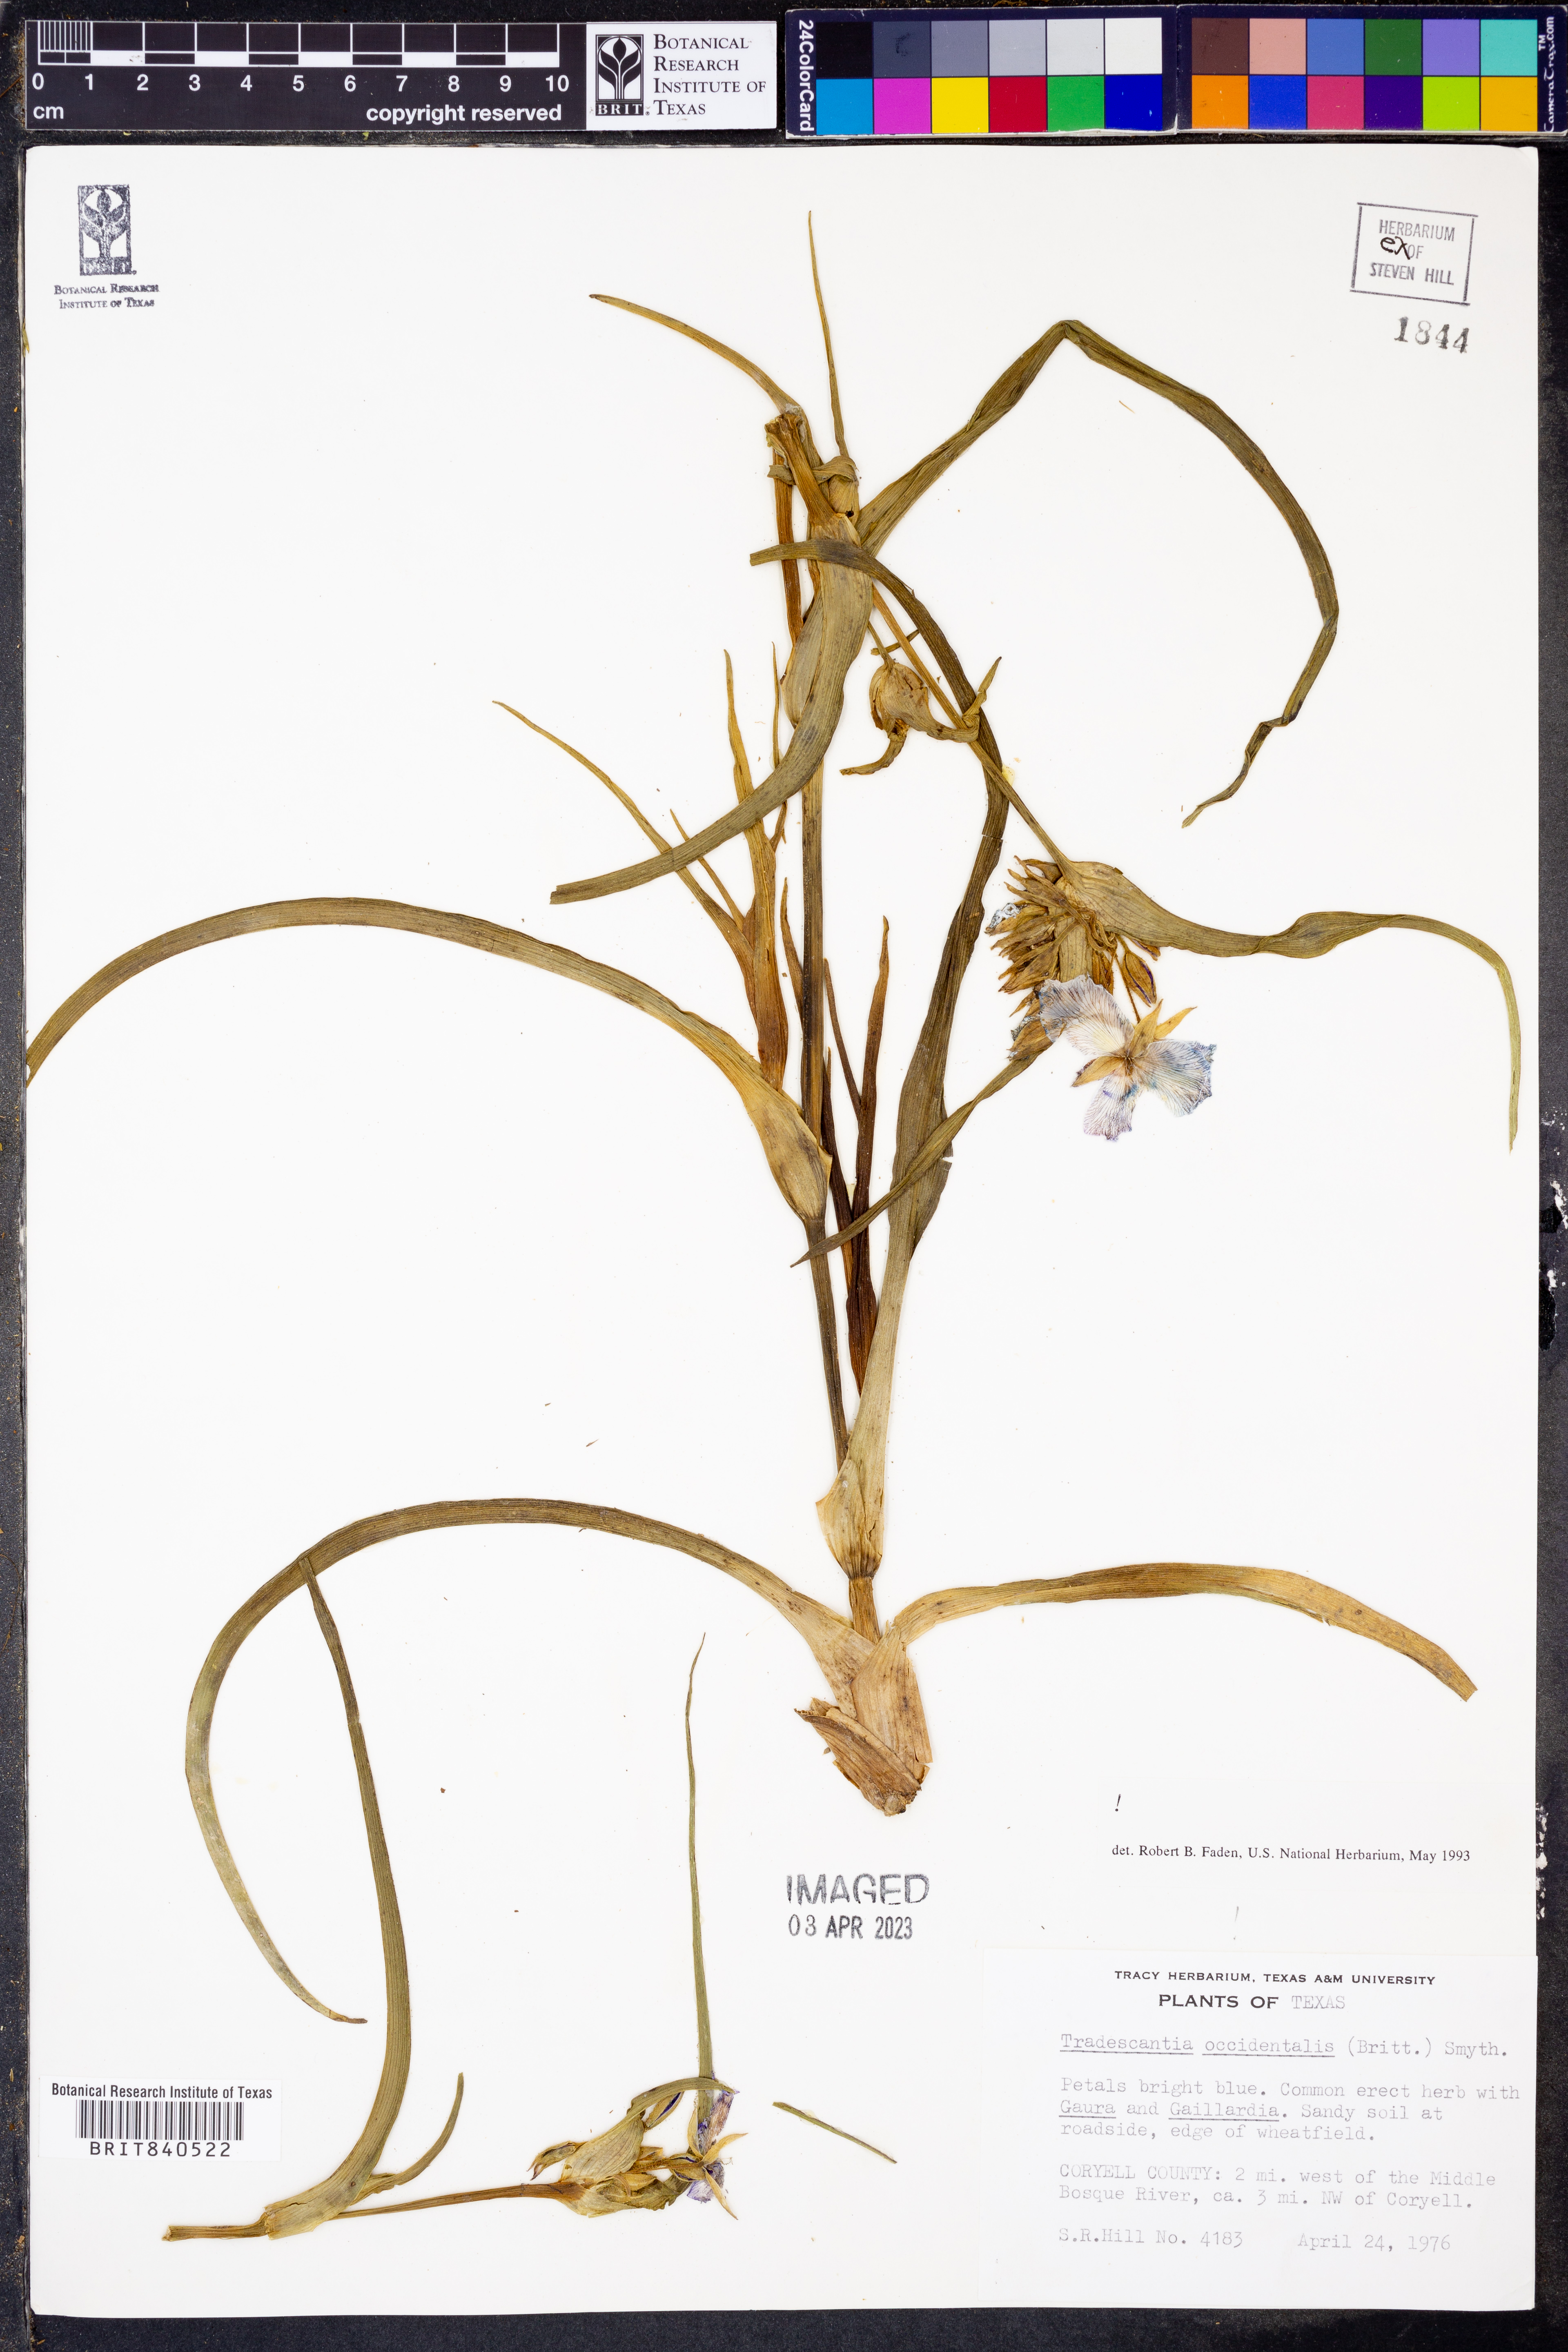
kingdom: Plantae
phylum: Tracheophyta
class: Liliopsida
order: Commelinales
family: Commelinaceae
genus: Tradescantia
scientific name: Tradescantia occidentalis
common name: Prairie spiderwort
